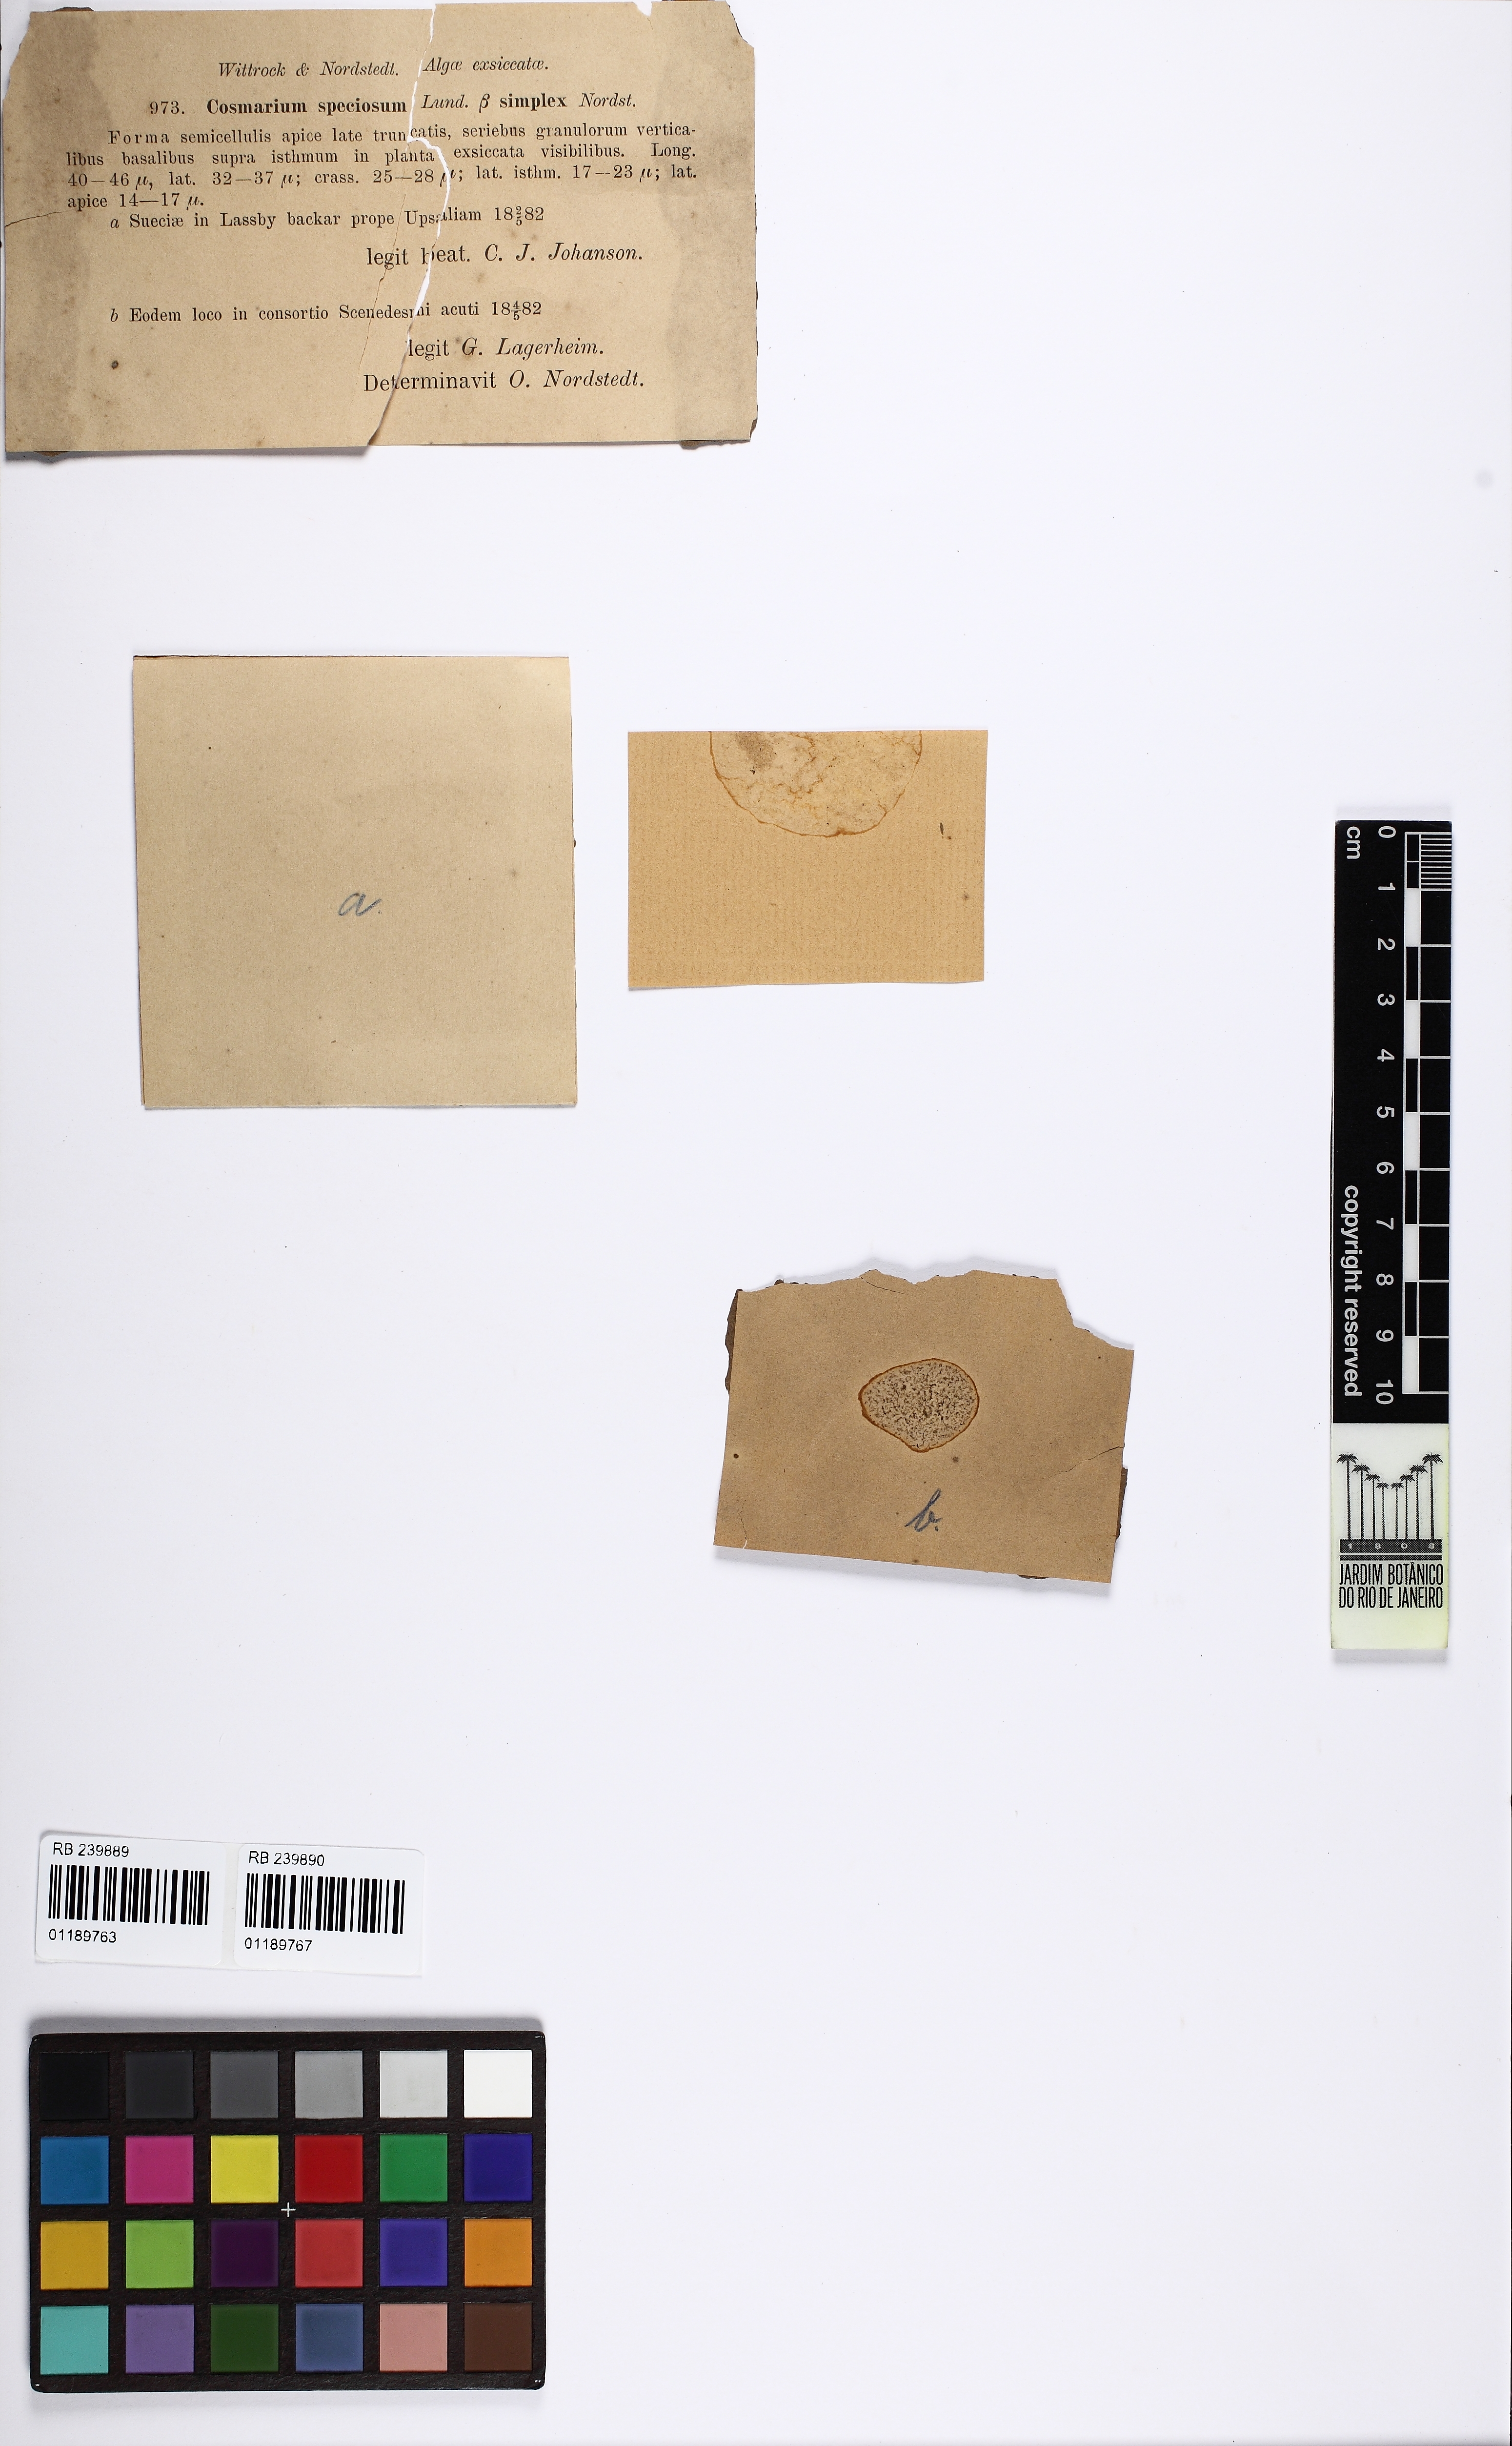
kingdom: Plantae
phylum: Charophyta
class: Conjugatophyceae
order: Desmidiales
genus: Cosmarium
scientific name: Cosmarium speciosum
